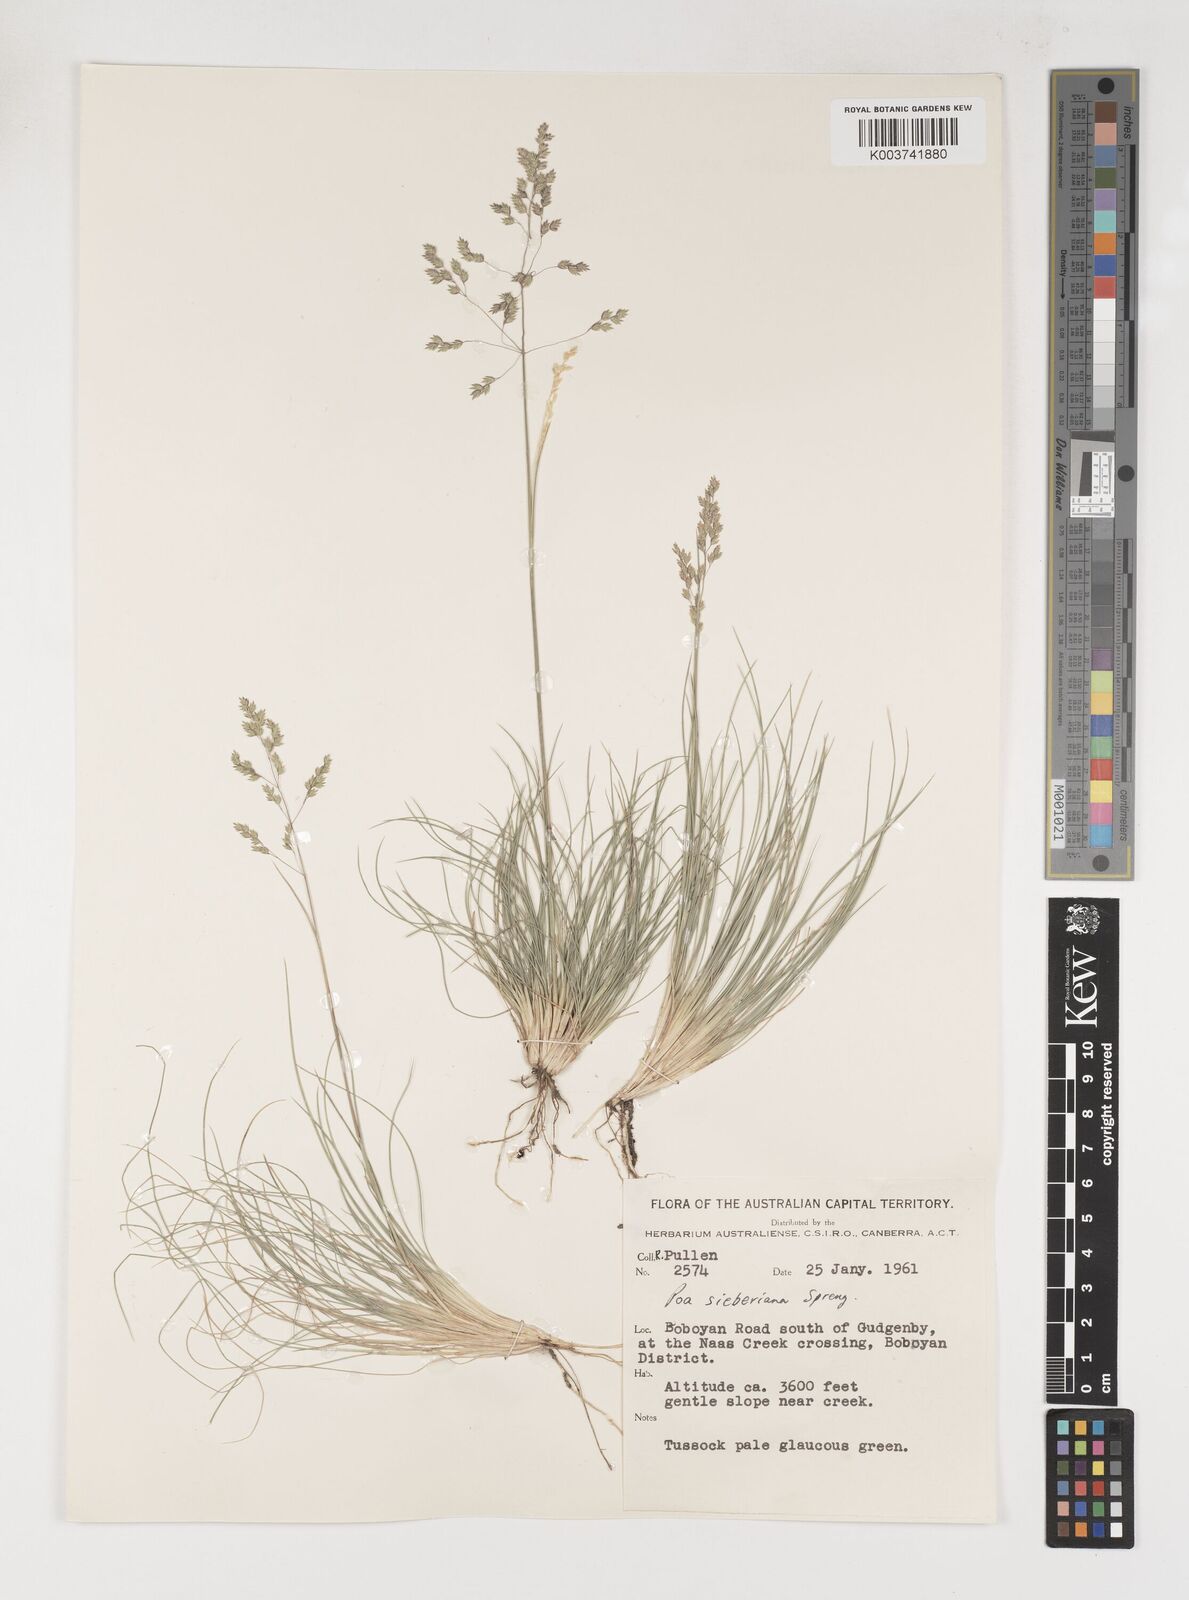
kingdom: Plantae
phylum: Tracheophyta
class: Liliopsida
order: Poales
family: Poaceae
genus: Poa
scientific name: Poa sieberiana
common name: Tussock poa
